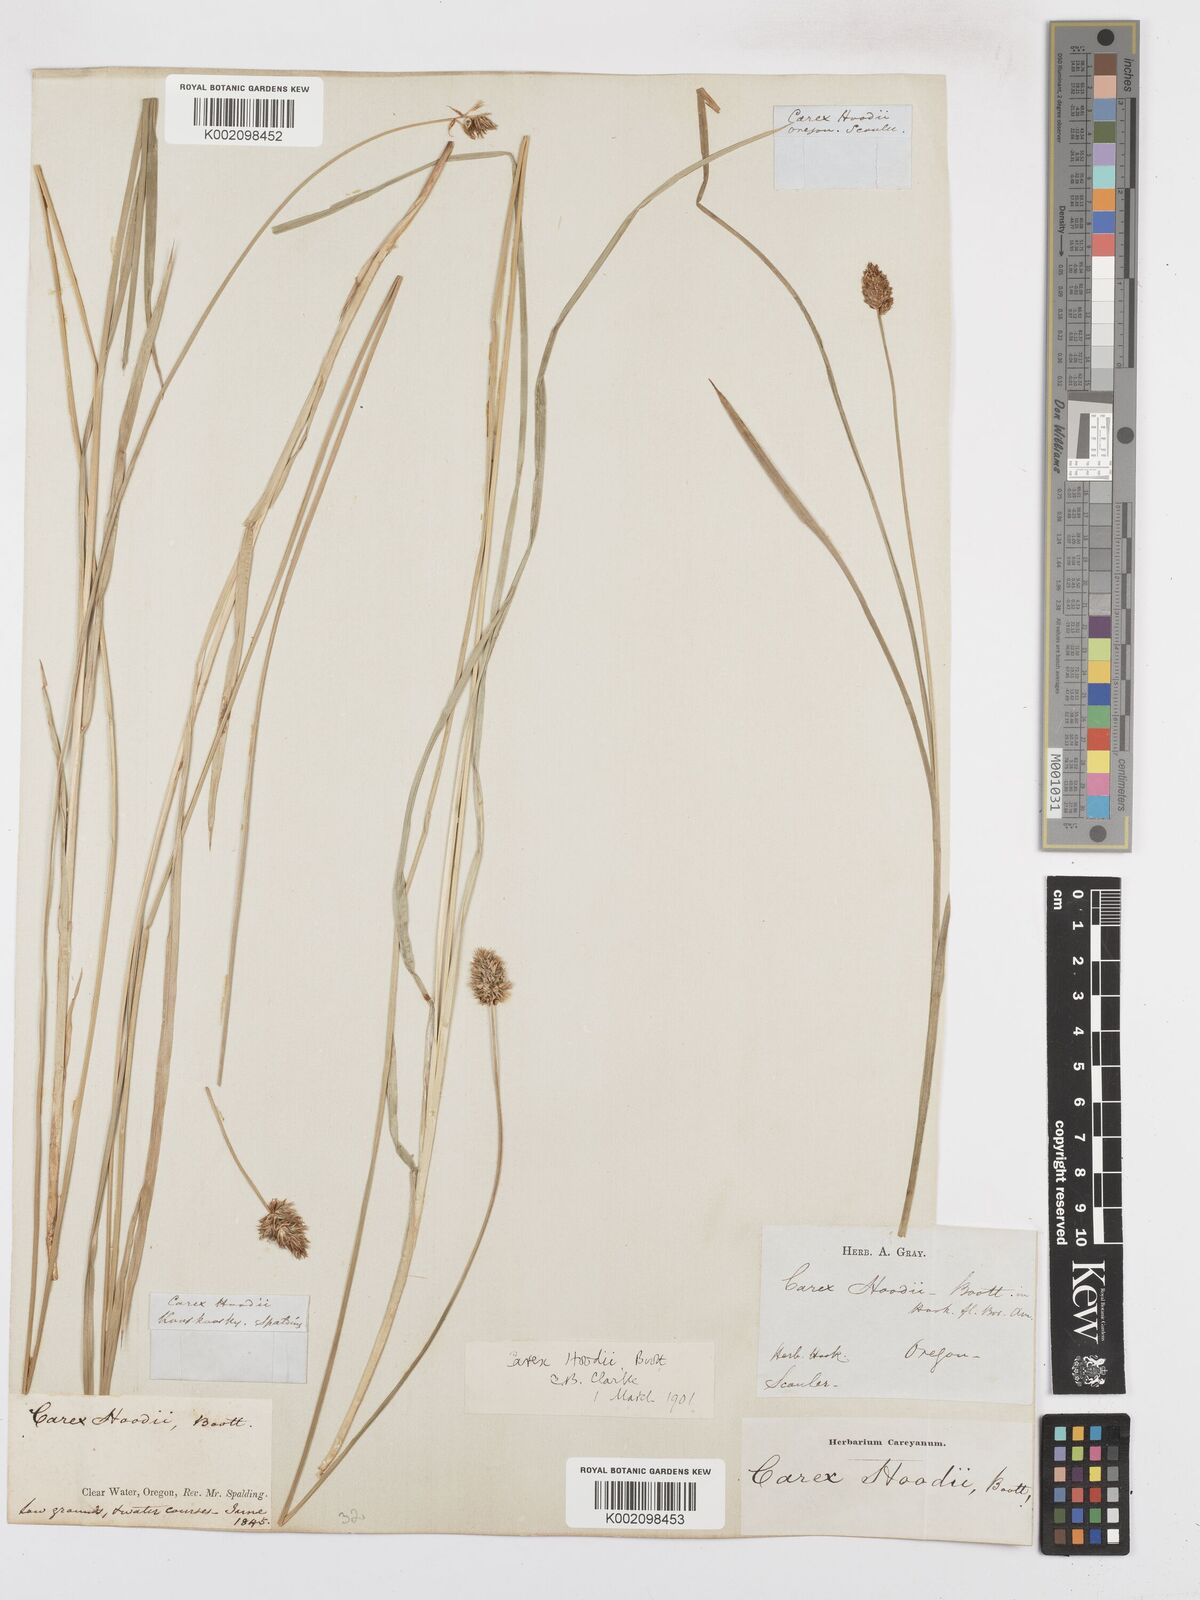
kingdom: Plantae
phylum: Tracheophyta
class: Liliopsida
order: Poales
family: Cyperaceae
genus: Carex
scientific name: Carex hoodii
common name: Hood's sedge
